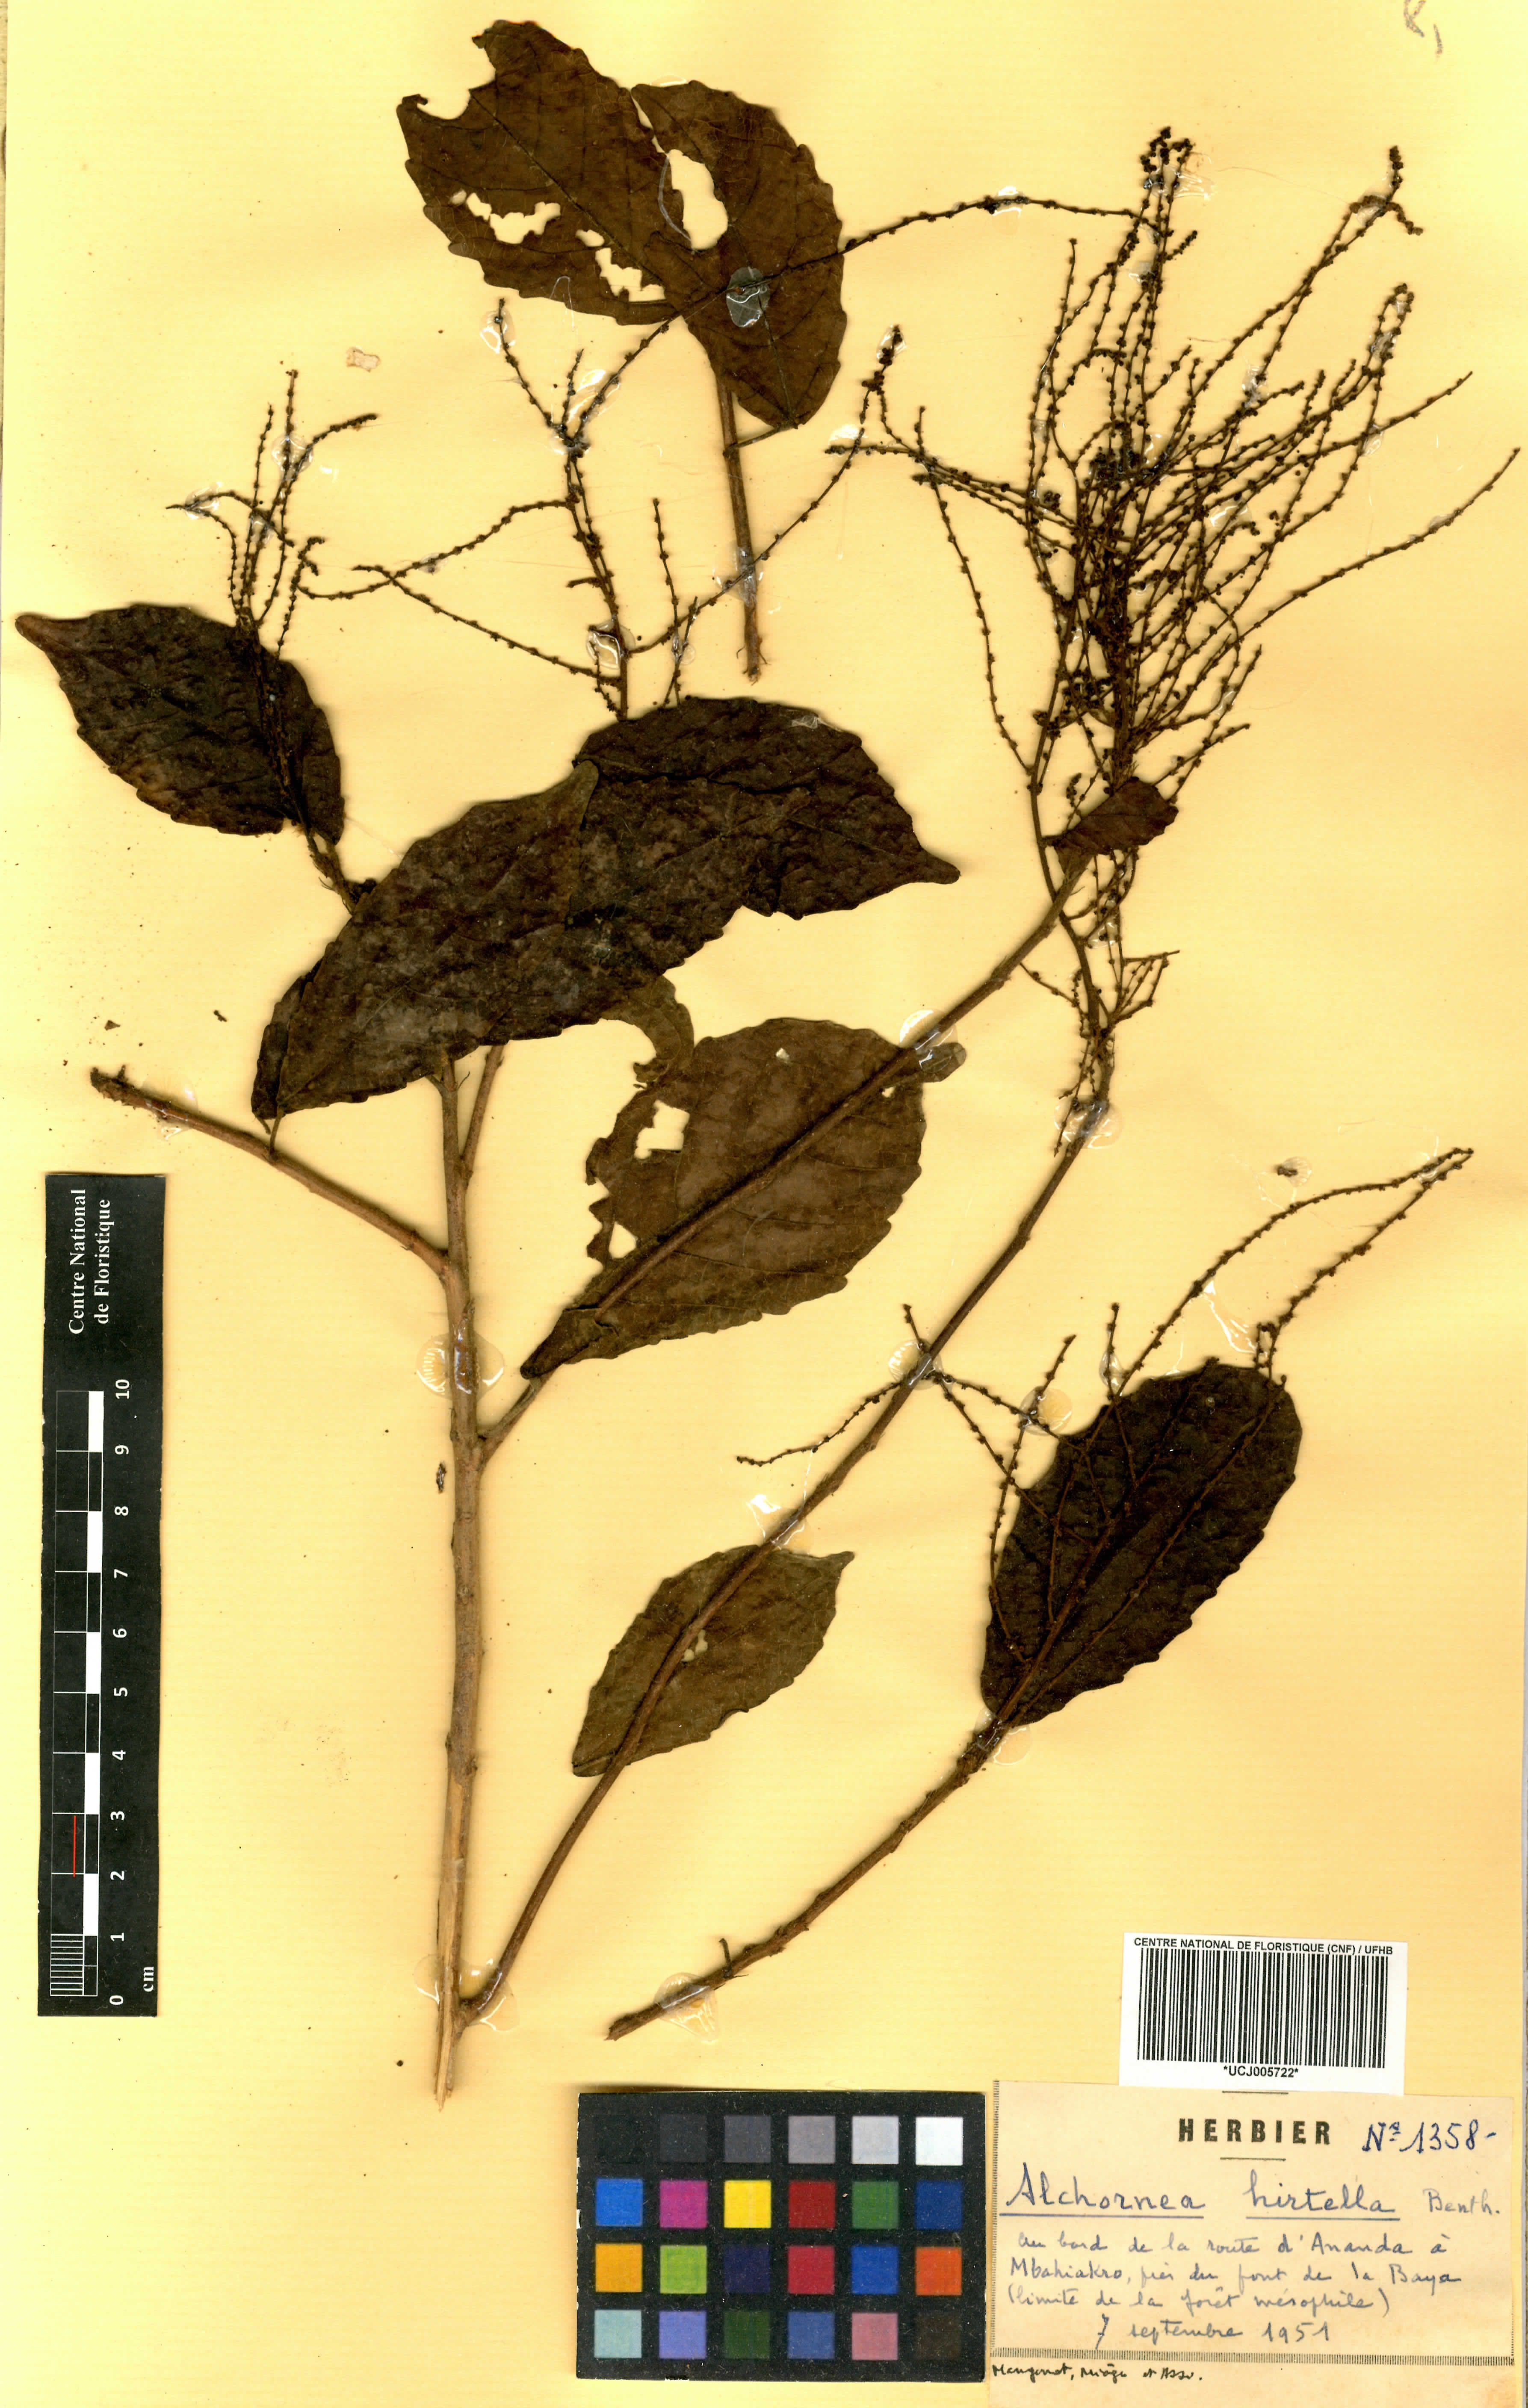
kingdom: Plantae
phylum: Tracheophyta
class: Magnoliopsida
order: Malpighiales
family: Euphorbiaceae
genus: Alchornea
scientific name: Alchornea hirtella
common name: Forest bead-string
